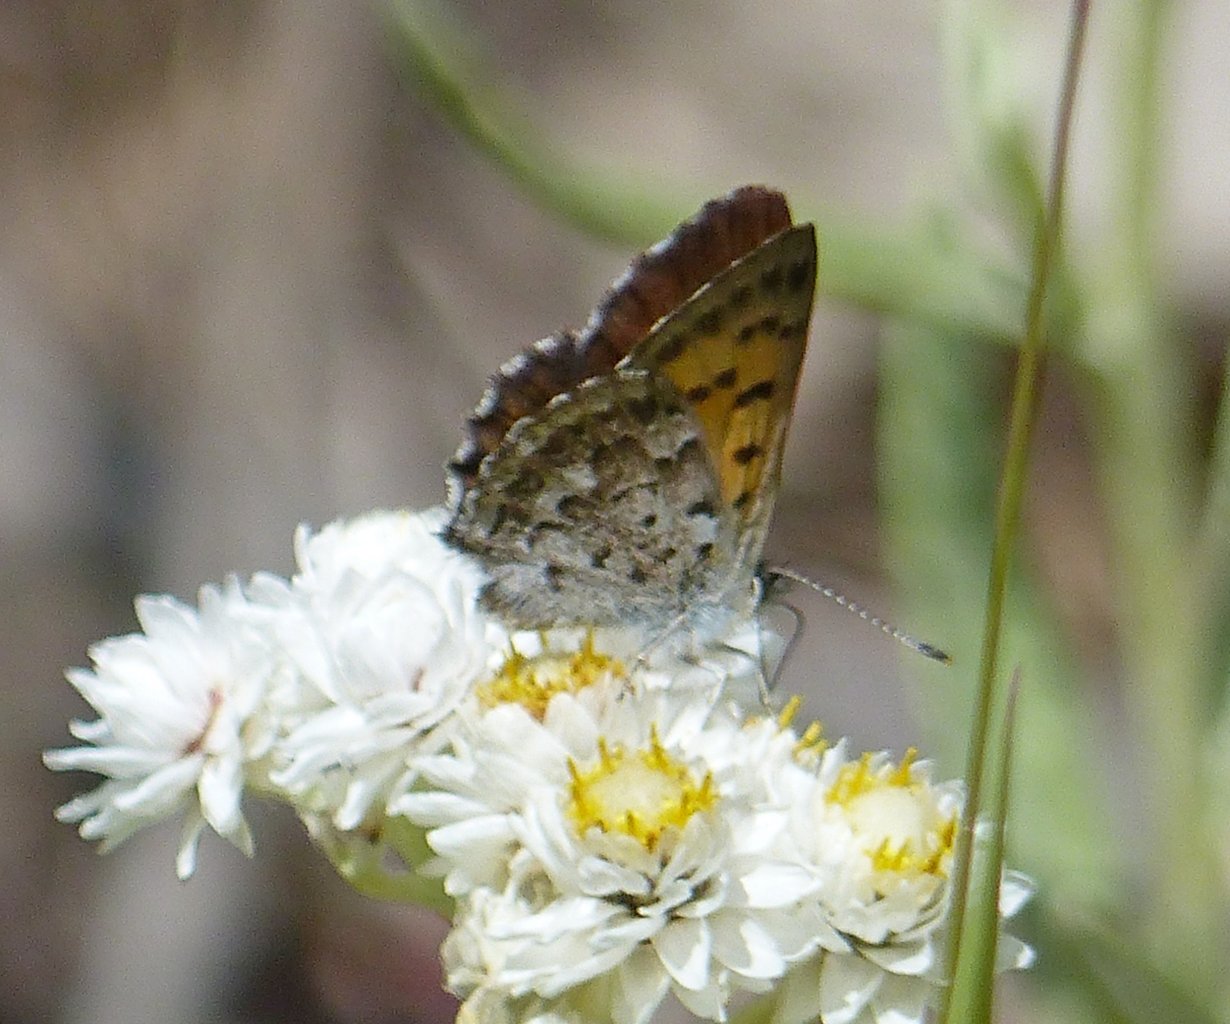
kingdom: Animalia
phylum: Arthropoda
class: Insecta
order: Lepidoptera
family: Lycaenidae
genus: Lycaena
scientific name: Lycaena mariposa
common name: Mariposa Copper
